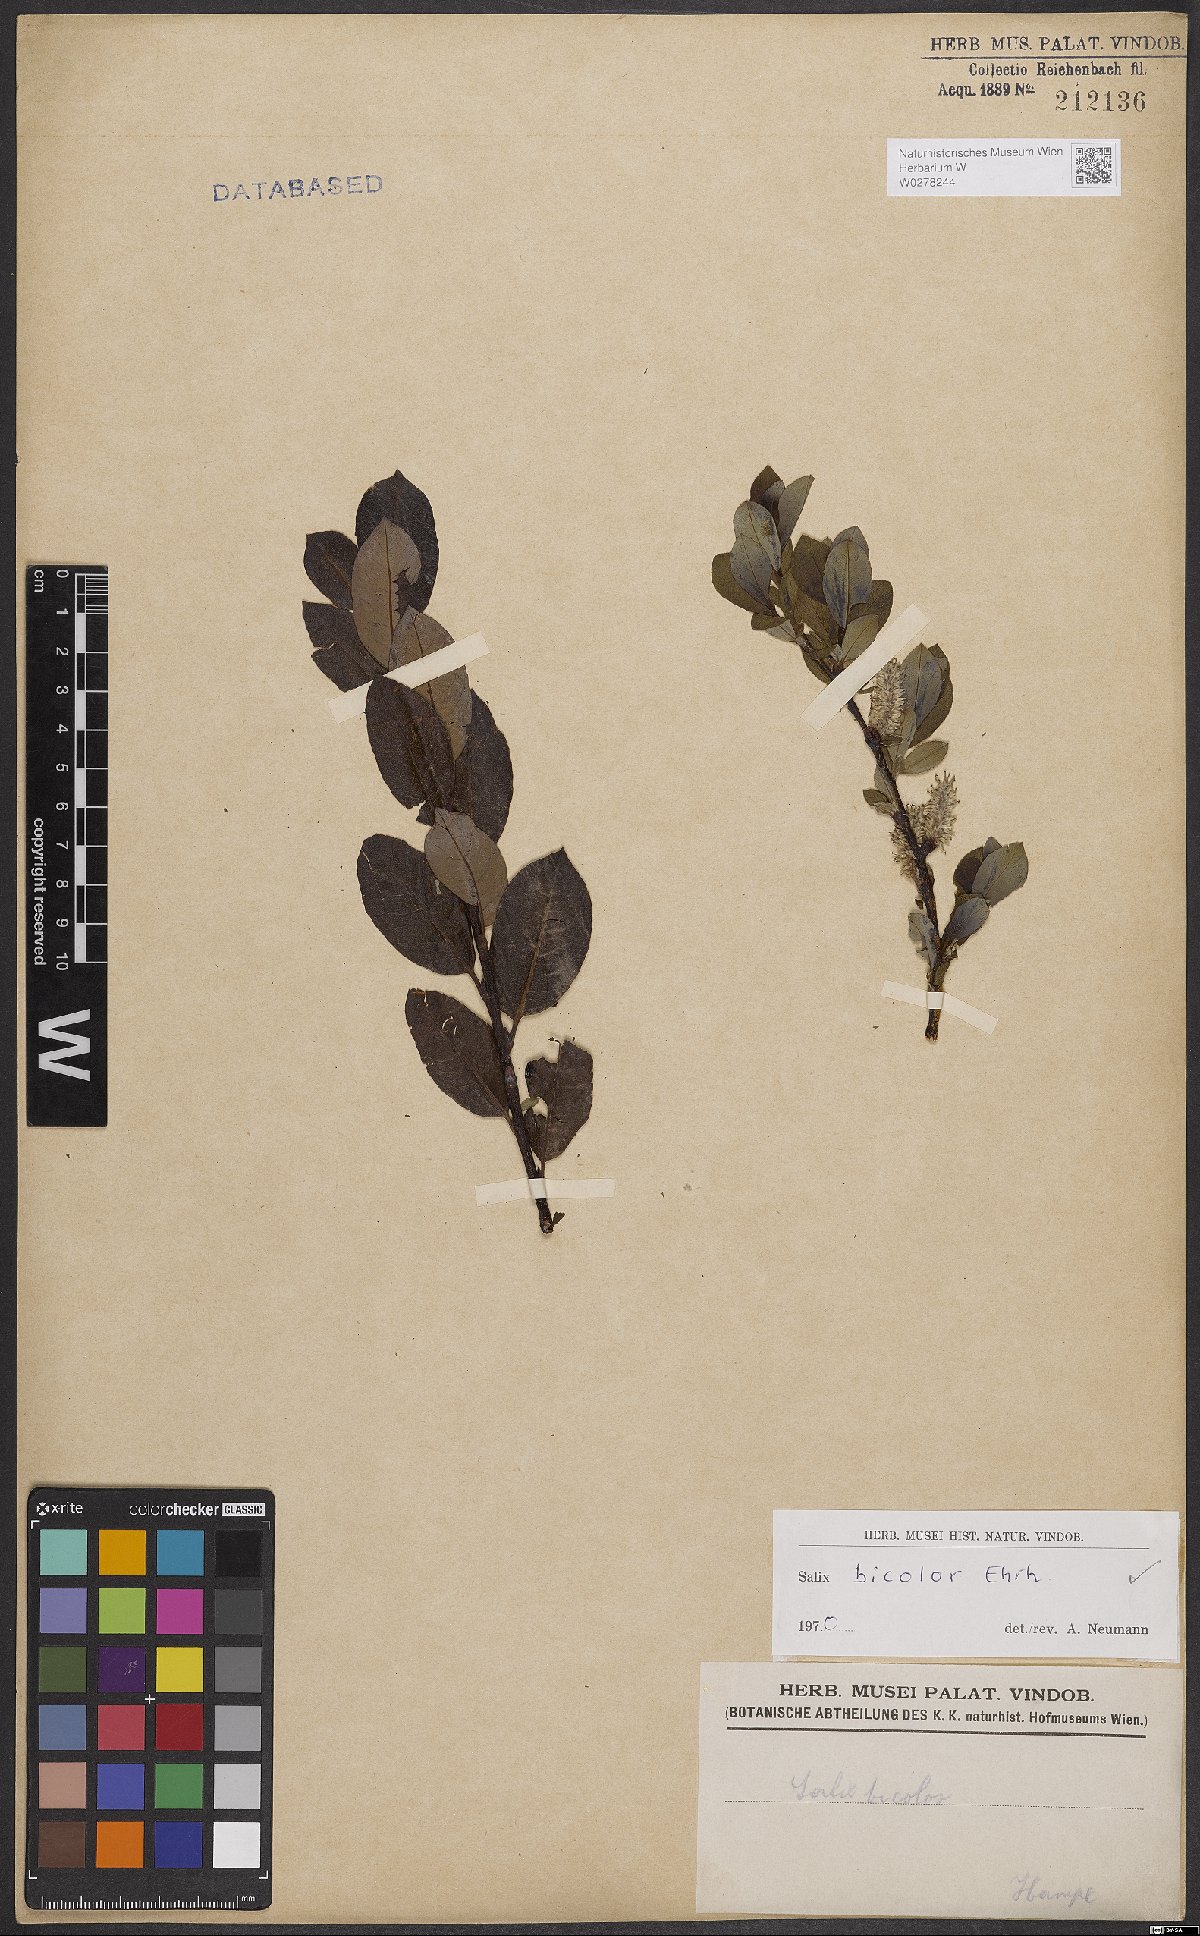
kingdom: Plantae
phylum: Tracheophyta
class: Magnoliopsida
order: Malpighiales
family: Salicaceae
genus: Salix
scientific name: Salix bicolor
